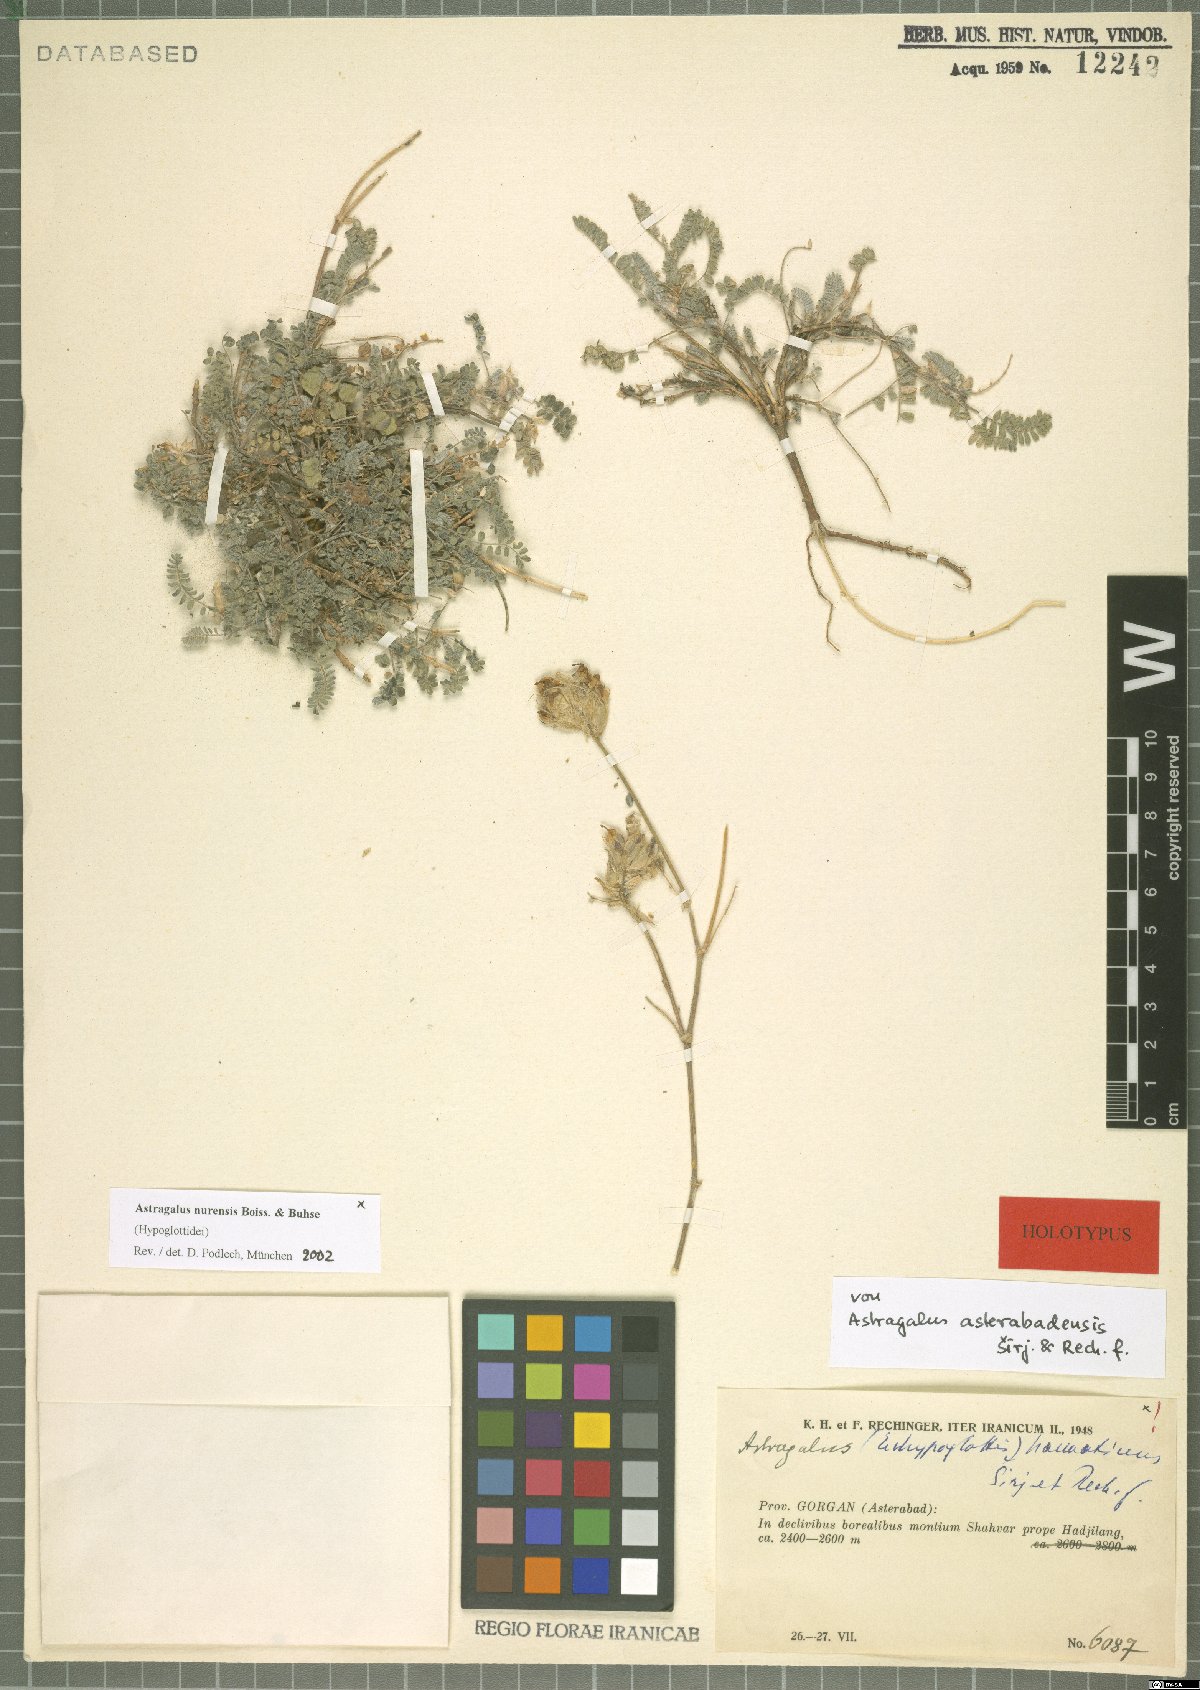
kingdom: Plantae
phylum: Tracheophyta
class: Magnoliopsida
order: Fabales
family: Fabaceae
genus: Astragalus
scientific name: Astragalus nurensis
